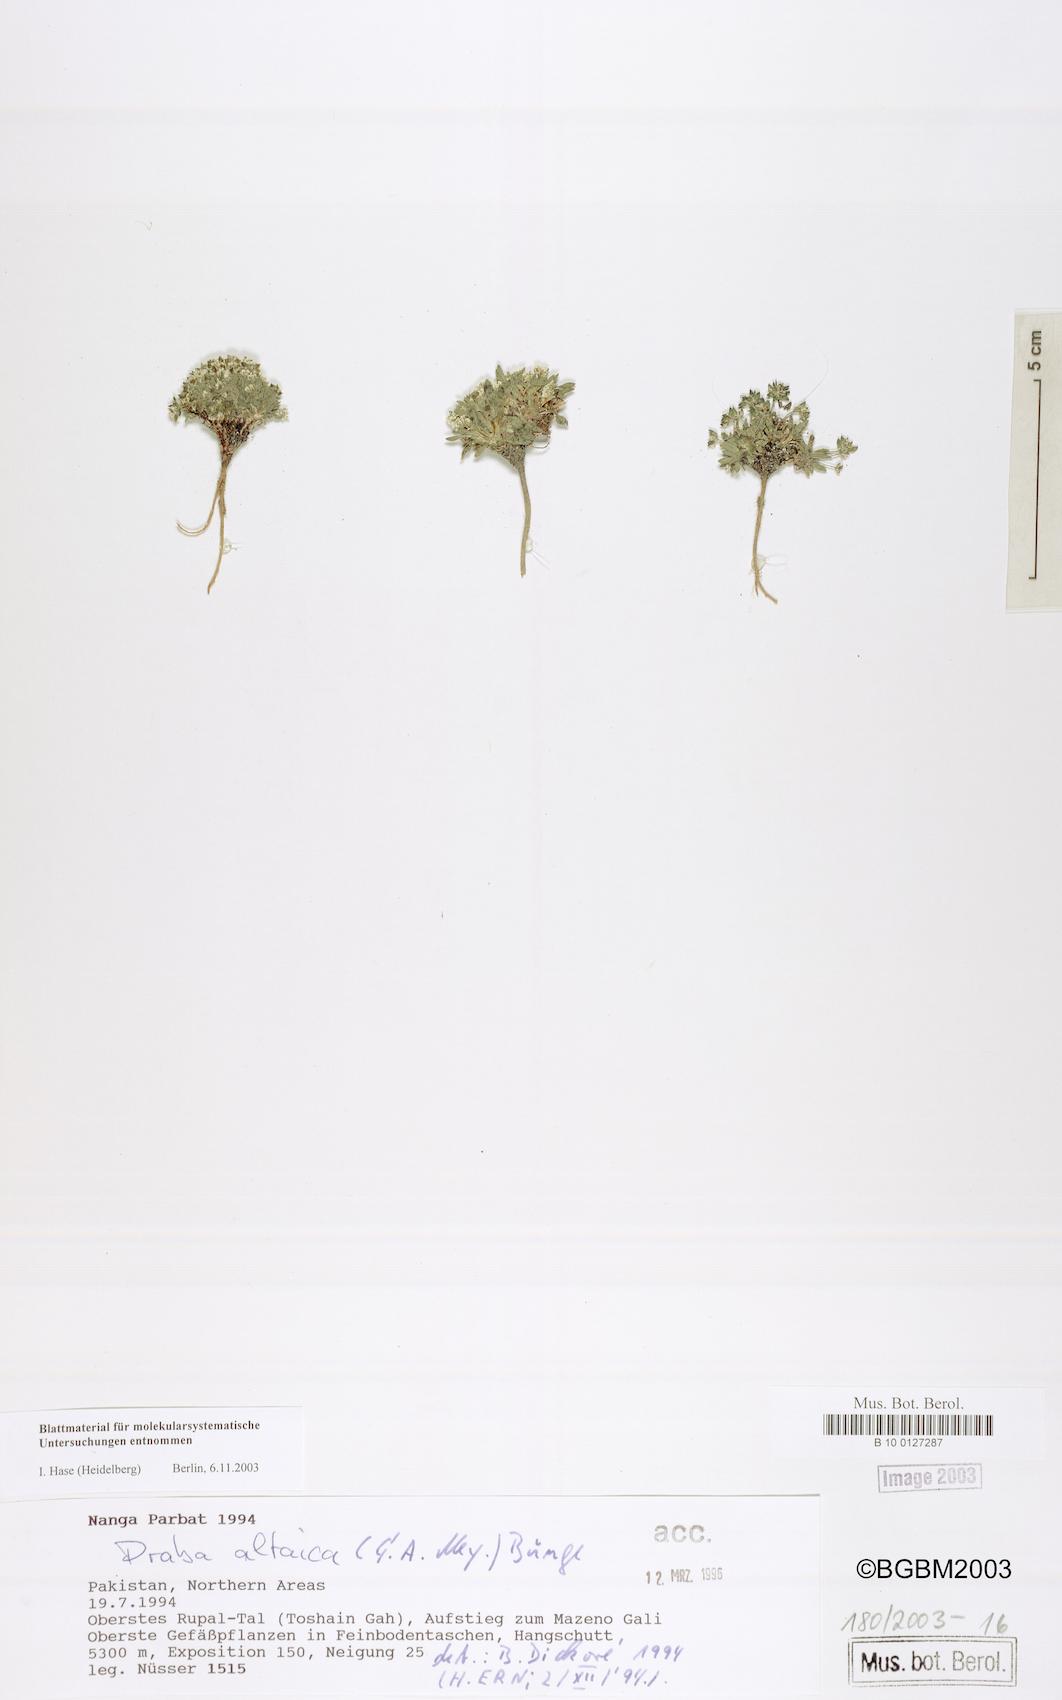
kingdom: Plantae
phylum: Tracheophyta
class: Magnoliopsida
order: Brassicales
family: Brassicaceae
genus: Draba
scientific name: Draba altaica
